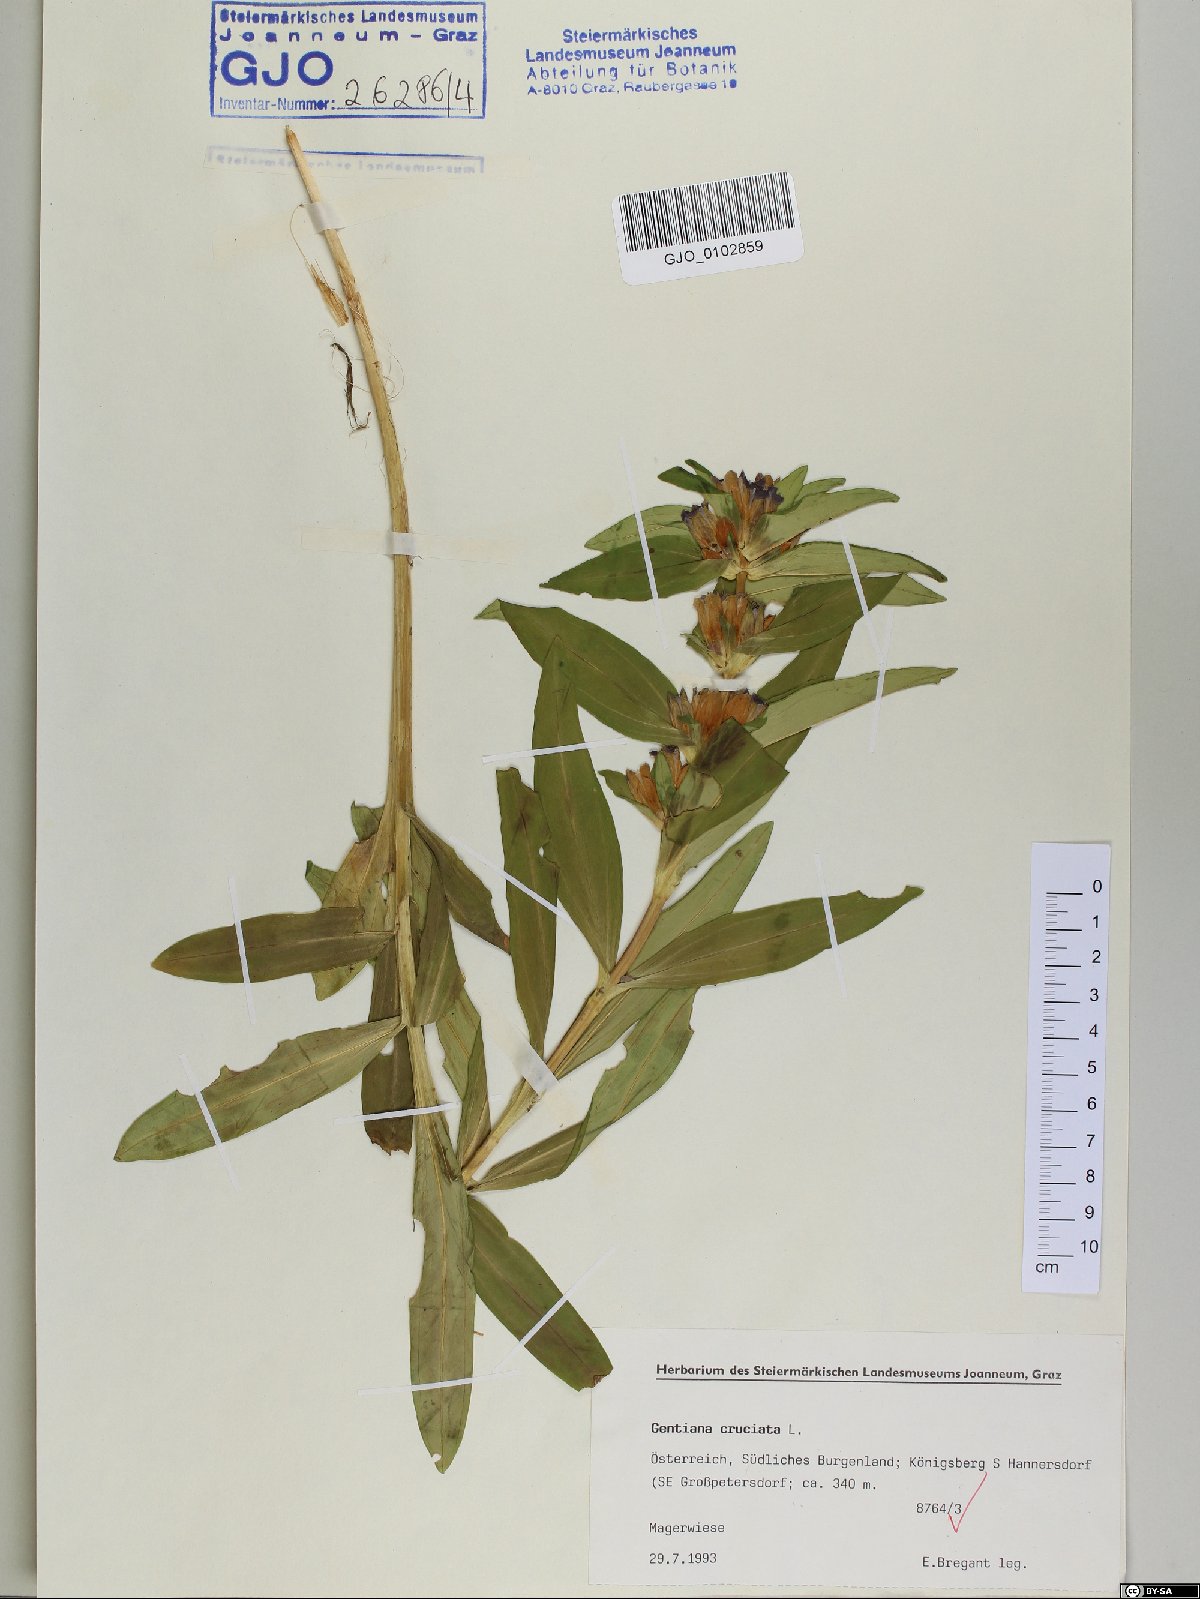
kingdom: Plantae
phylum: Tracheophyta
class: Magnoliopsida
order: Gentianales
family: Gentianaceae
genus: Gentiana
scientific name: Gentiana cruciata
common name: Cross gentian
